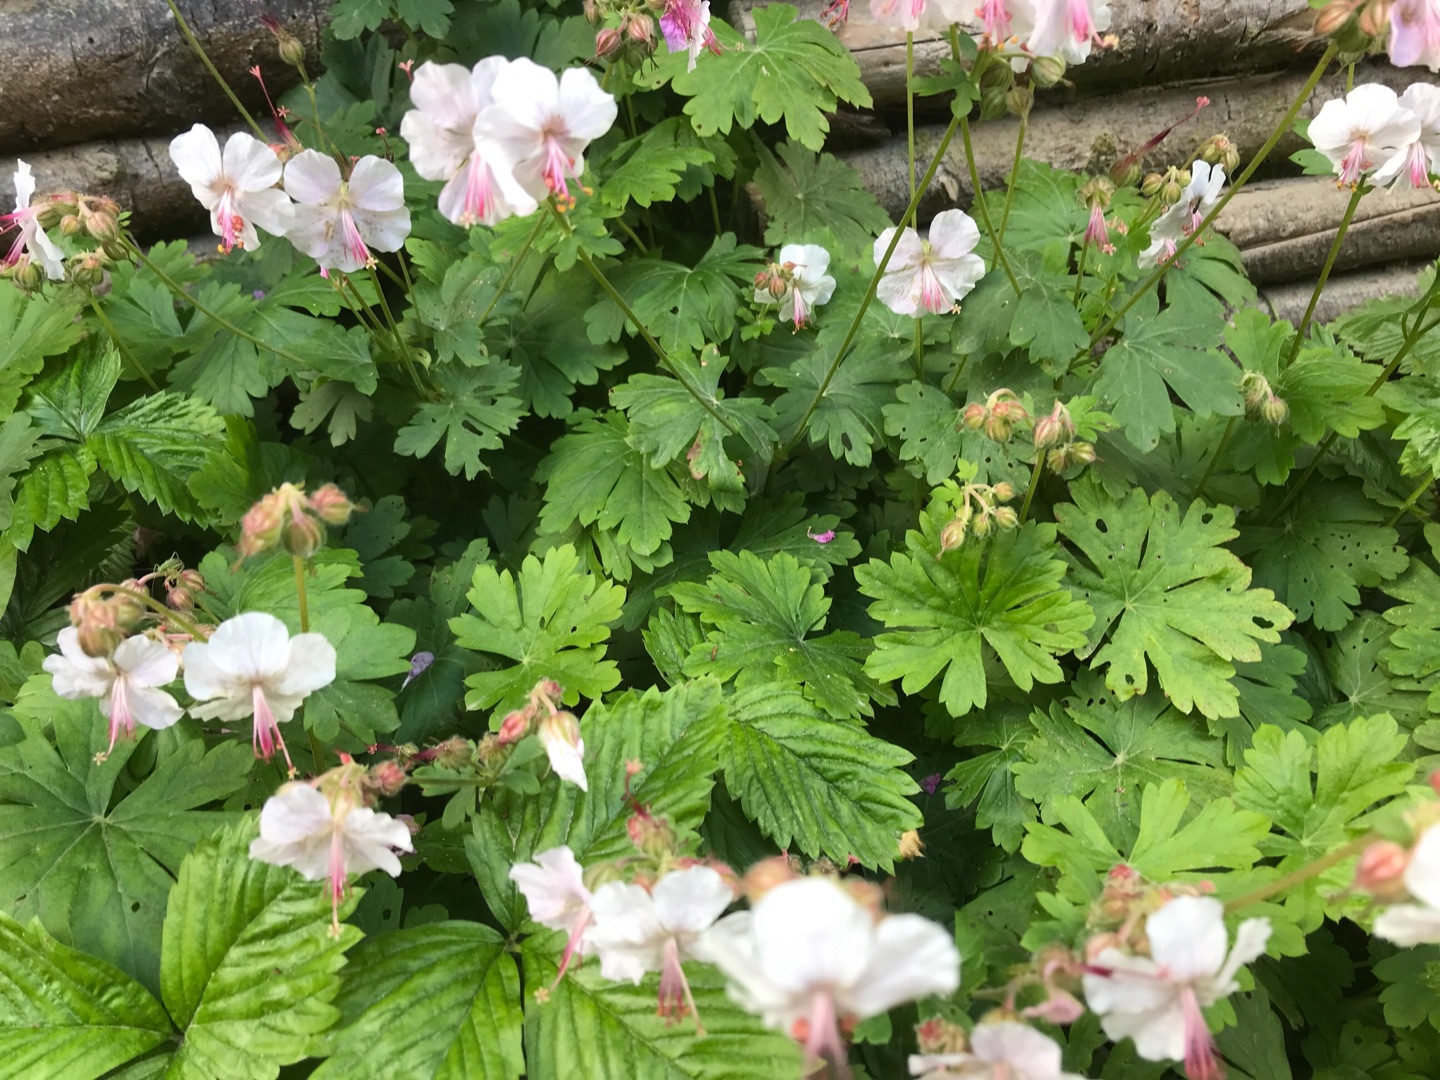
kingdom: Plantae
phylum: Tracheophyta
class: Magnoliopsida
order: Geraniales
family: Geraniaceae
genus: Geranium
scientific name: Geranium macrorrhizum
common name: Storrodet storkenæb
